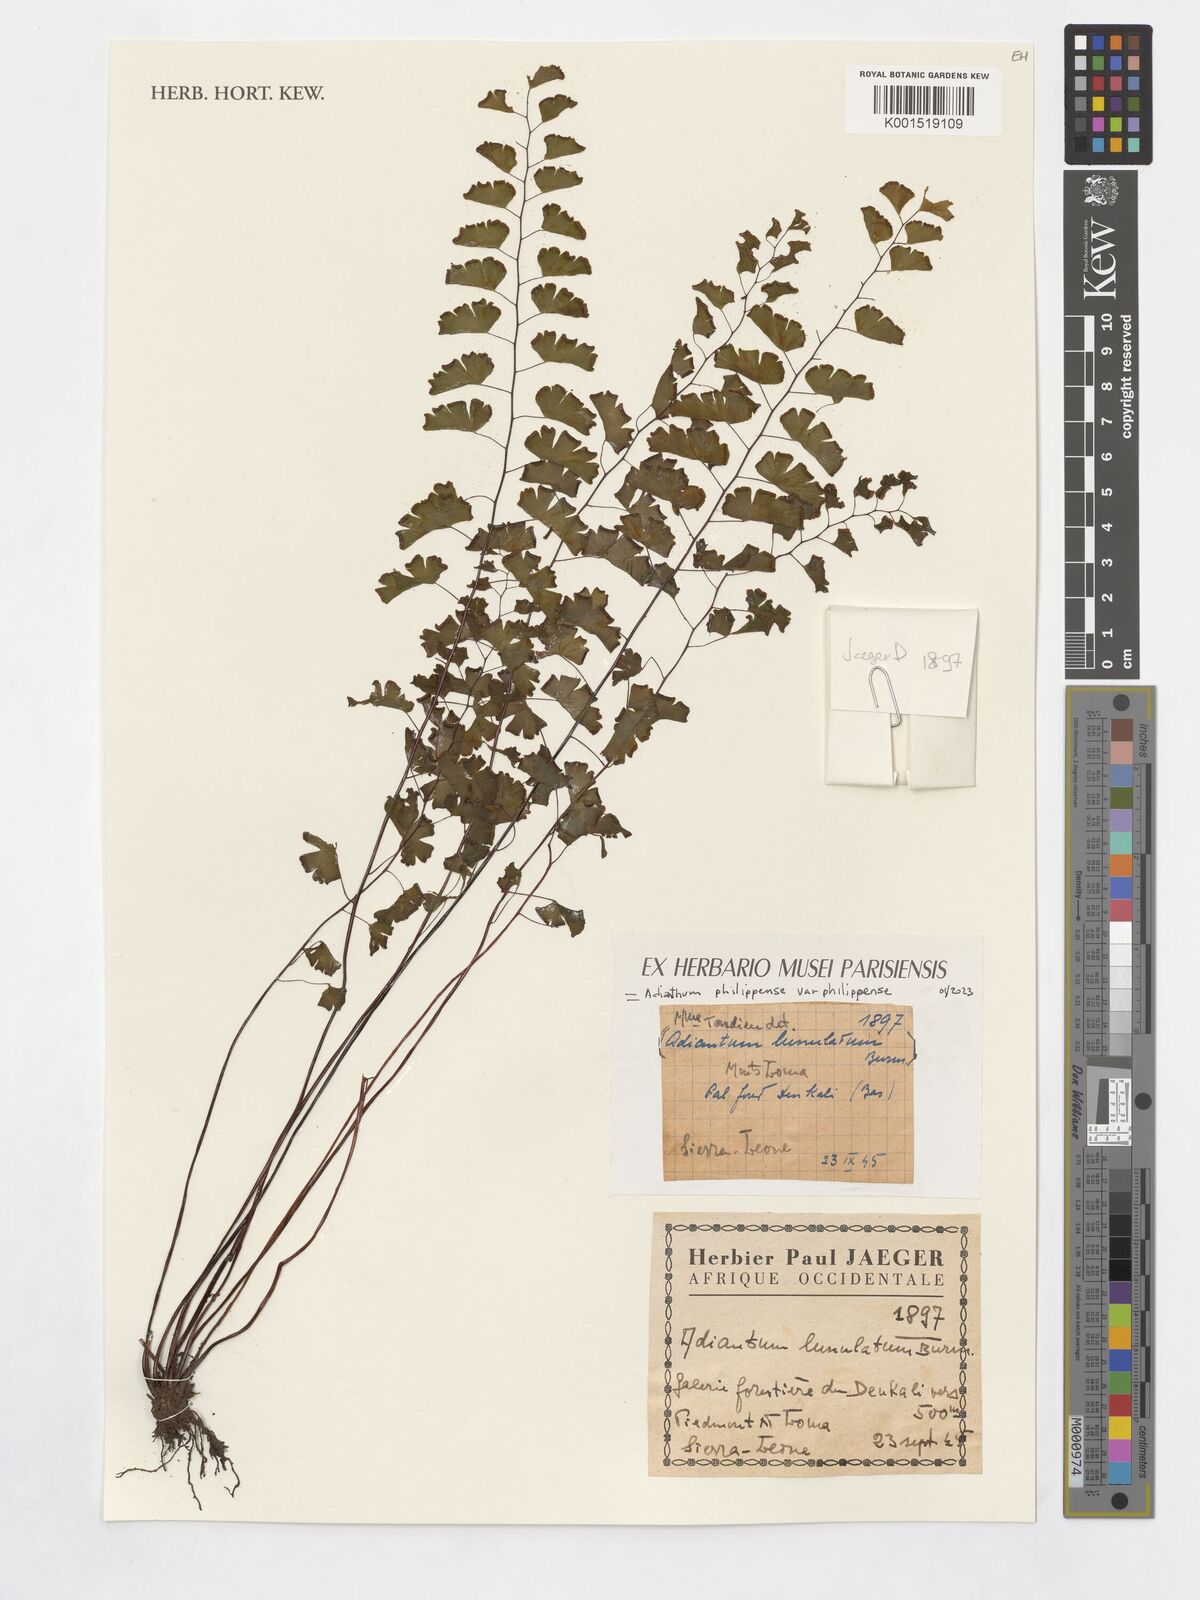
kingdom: Plantae
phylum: Tracheophyta
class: Polypodiopsida
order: Polypodiales
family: Pteridaceae
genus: Adiantum
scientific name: Adiantum
